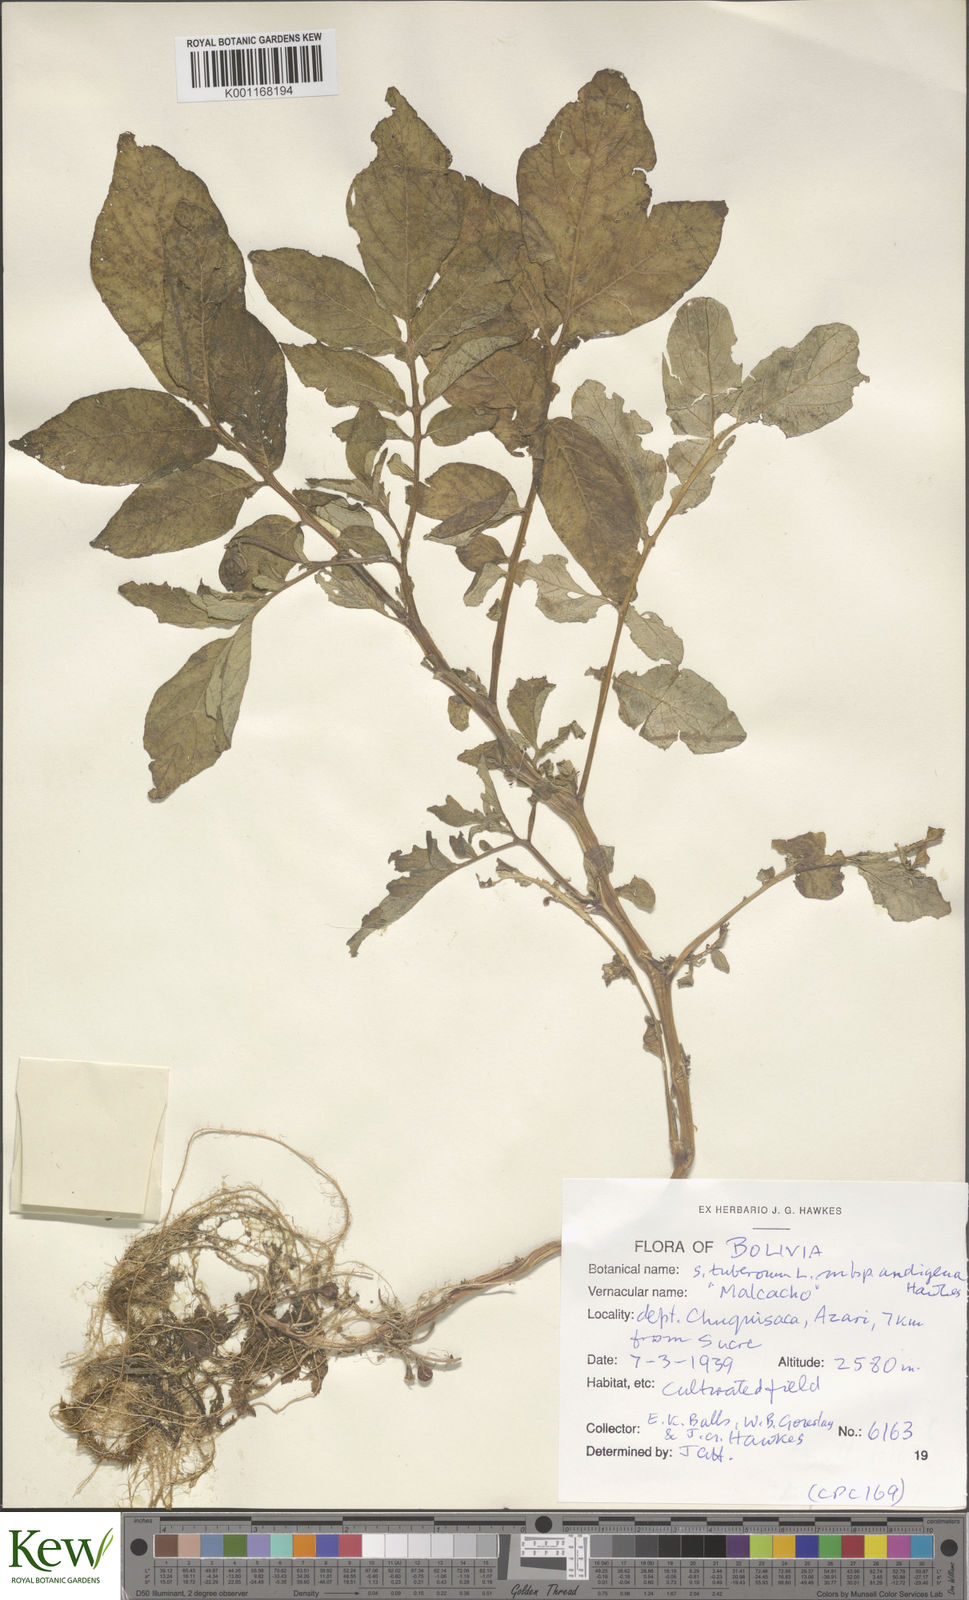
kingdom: Plantae
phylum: Tracheophyta
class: Magnoliopsida
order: Solanales
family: Solanaceae
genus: Solanum
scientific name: Solanum tuberosum
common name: Potato
